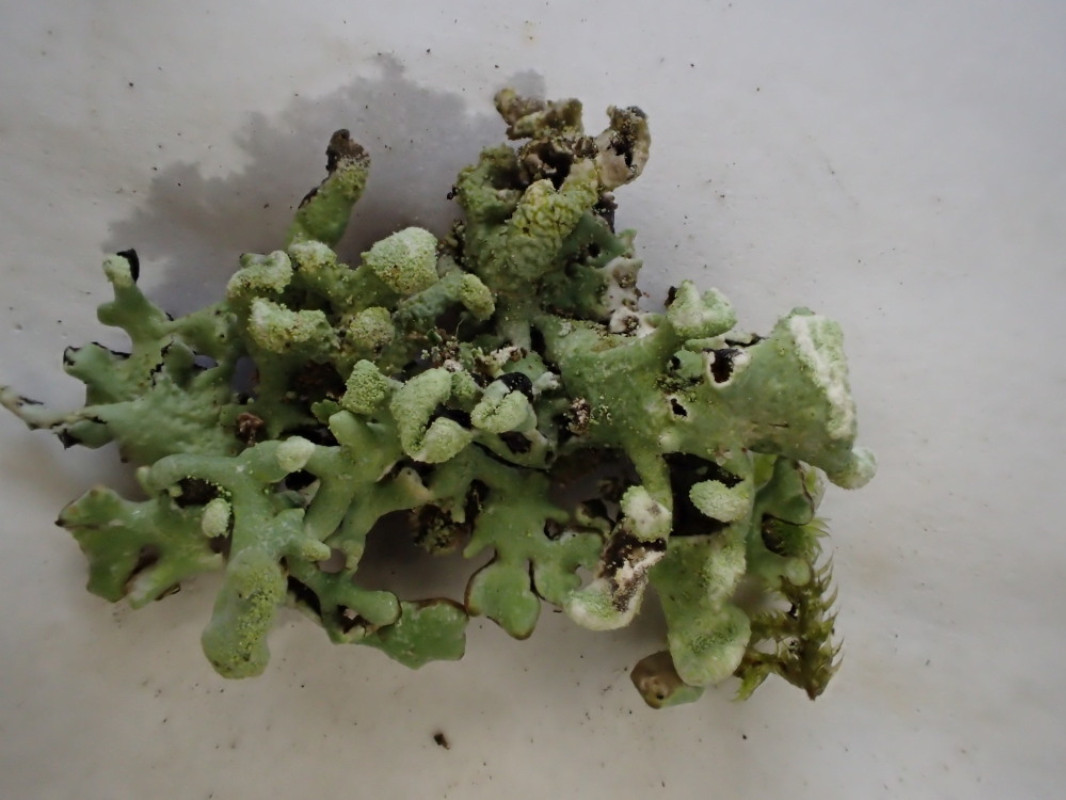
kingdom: Fungi
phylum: Ascomycota
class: Lecanoromycetes
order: Lecanorales
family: Parmeliaceae
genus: Hypogymnia
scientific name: Hypogymnia tubulosa
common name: finger-kvistlav
